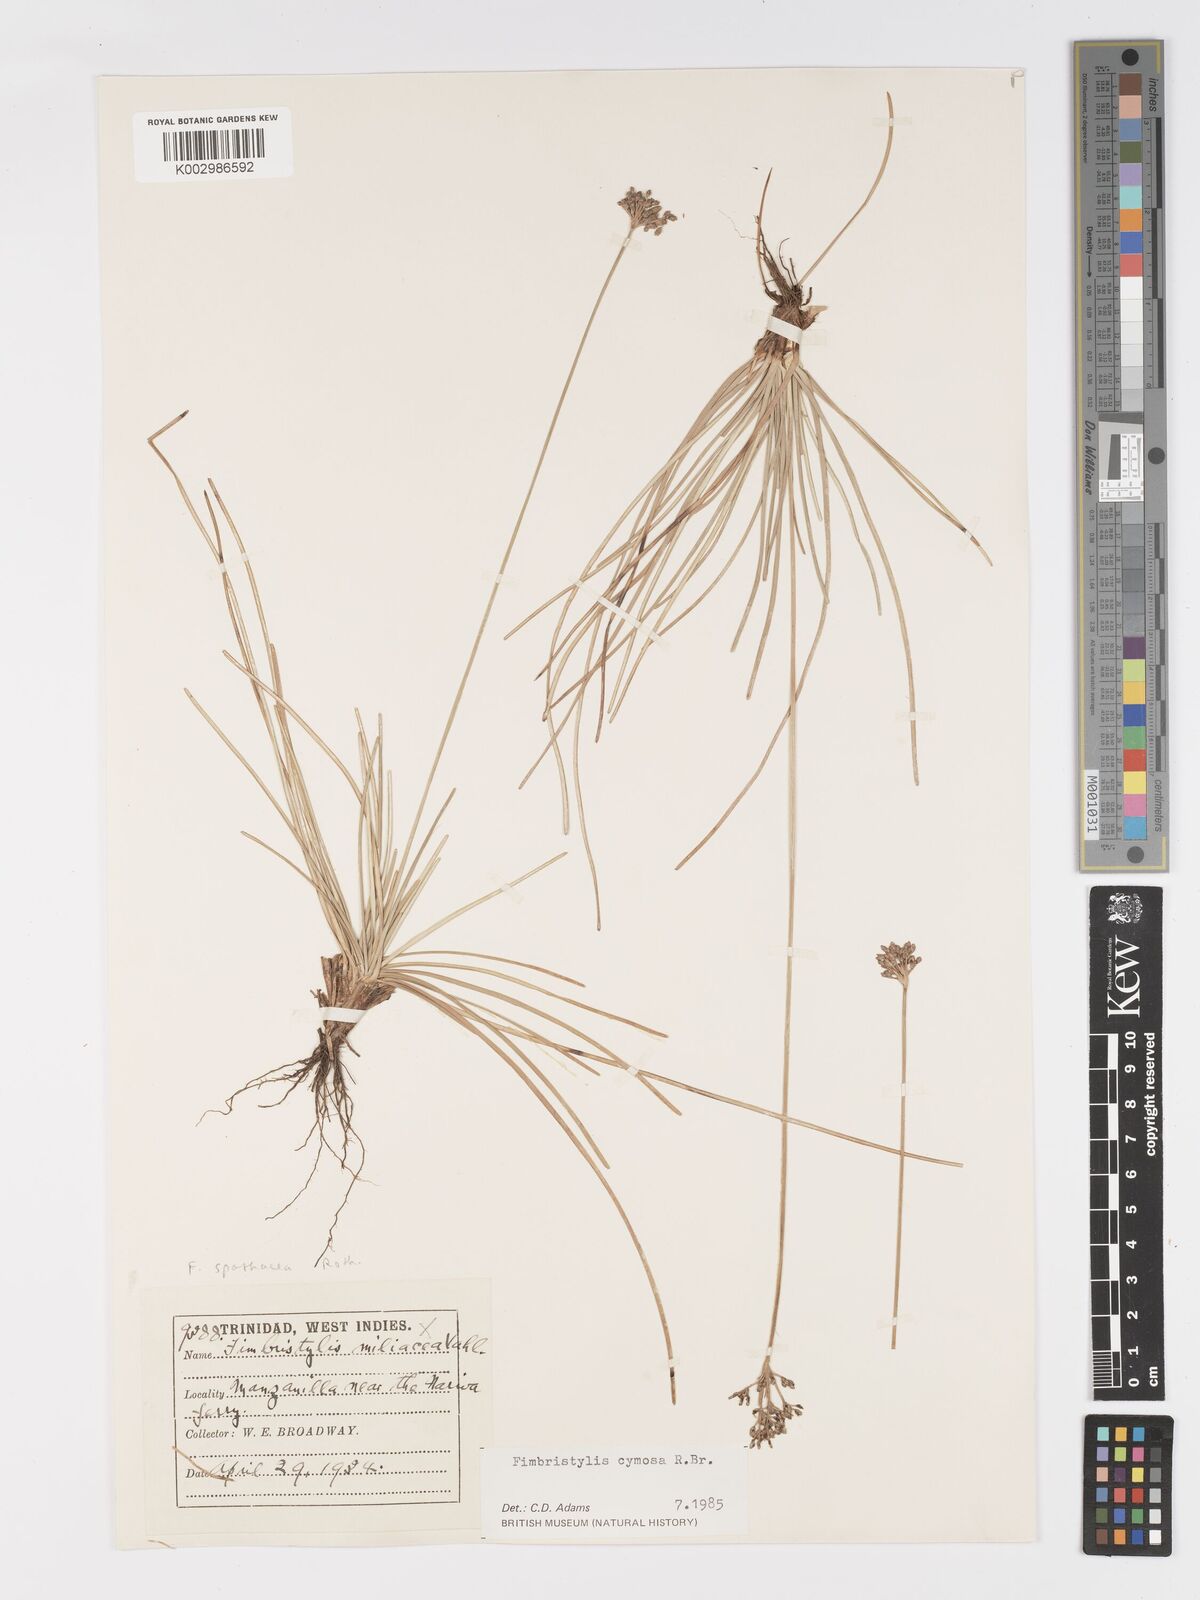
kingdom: Plantae
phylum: Tracheophyta
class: Liliopsida
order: Poales
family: Cyperaceae
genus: Fimbristylis
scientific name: Fimbristylis cymosa
